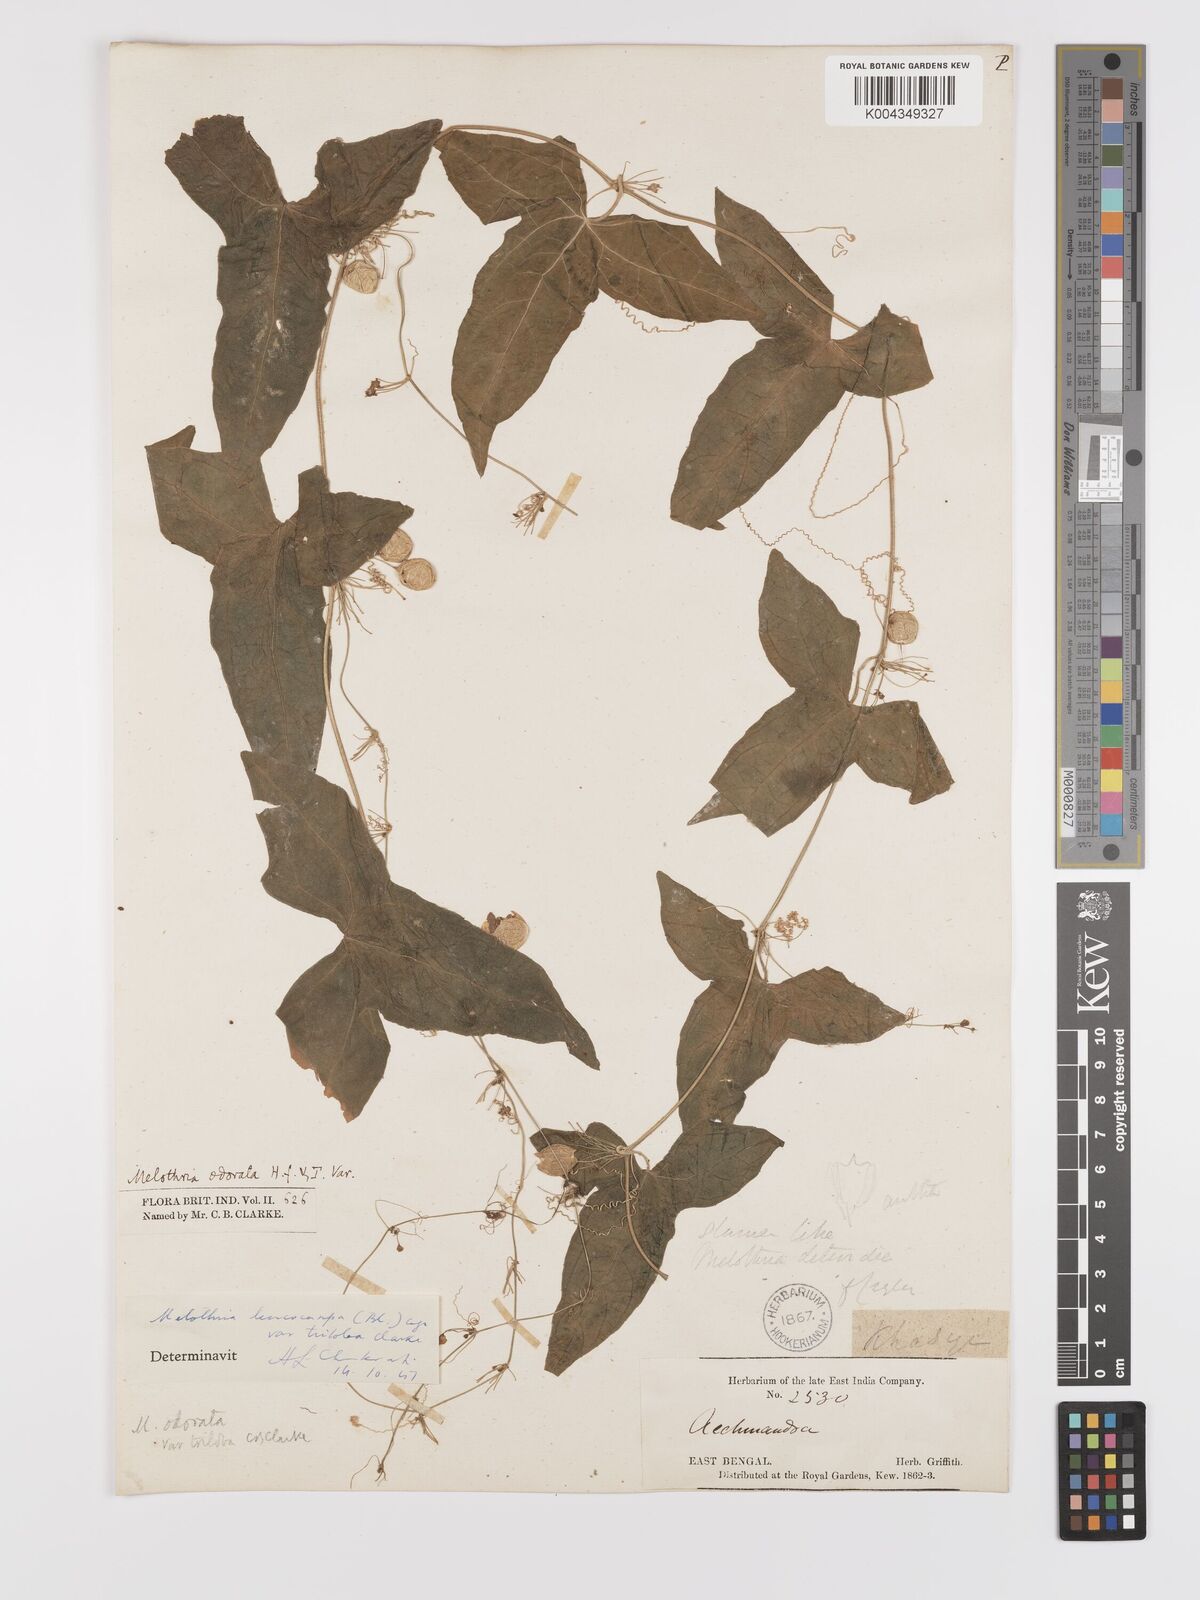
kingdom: Plantae
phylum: Tracheophyta
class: Magnoliopsida
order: Cucurbitales
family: Cucurbitaceae
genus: Zehneria
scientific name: Zehneria odorata
